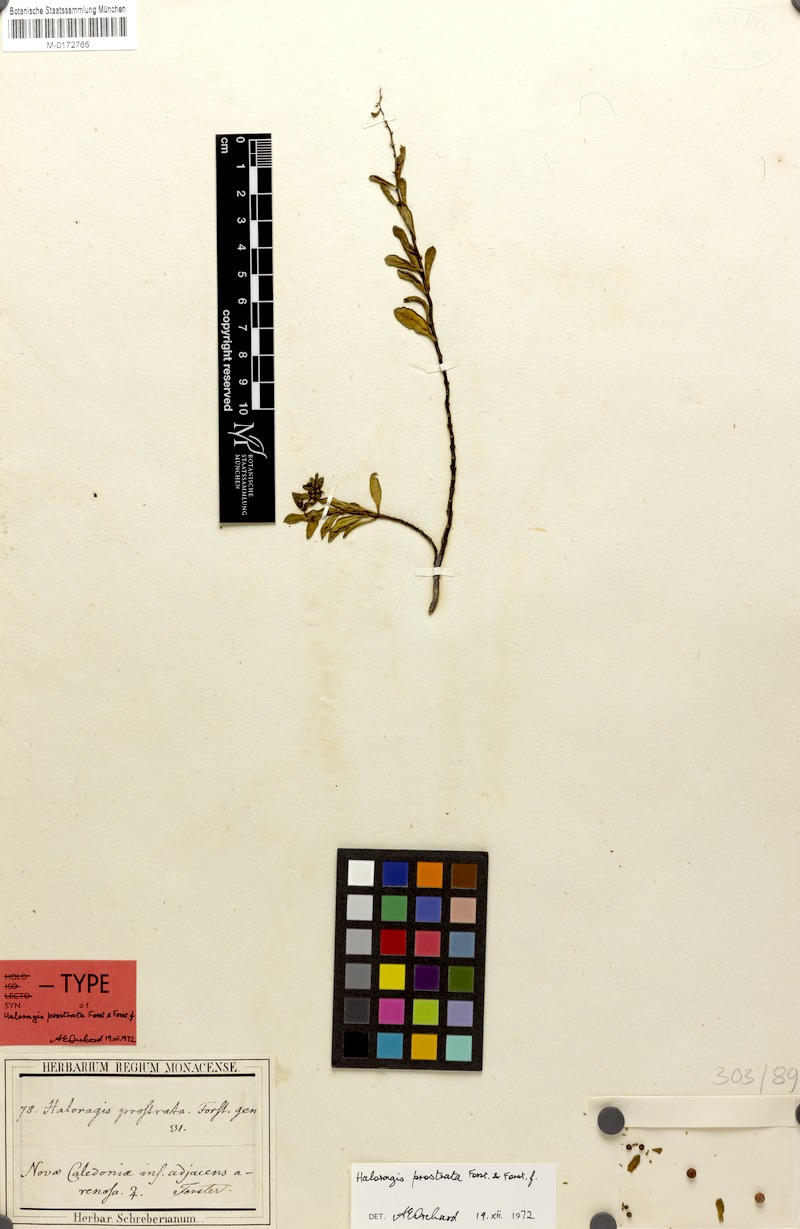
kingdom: Plantae
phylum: Tracheophyta
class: Magnoliopsida
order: Saxifragales
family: Haloragaceae
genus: Haloragis
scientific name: Haloragis prostrata
